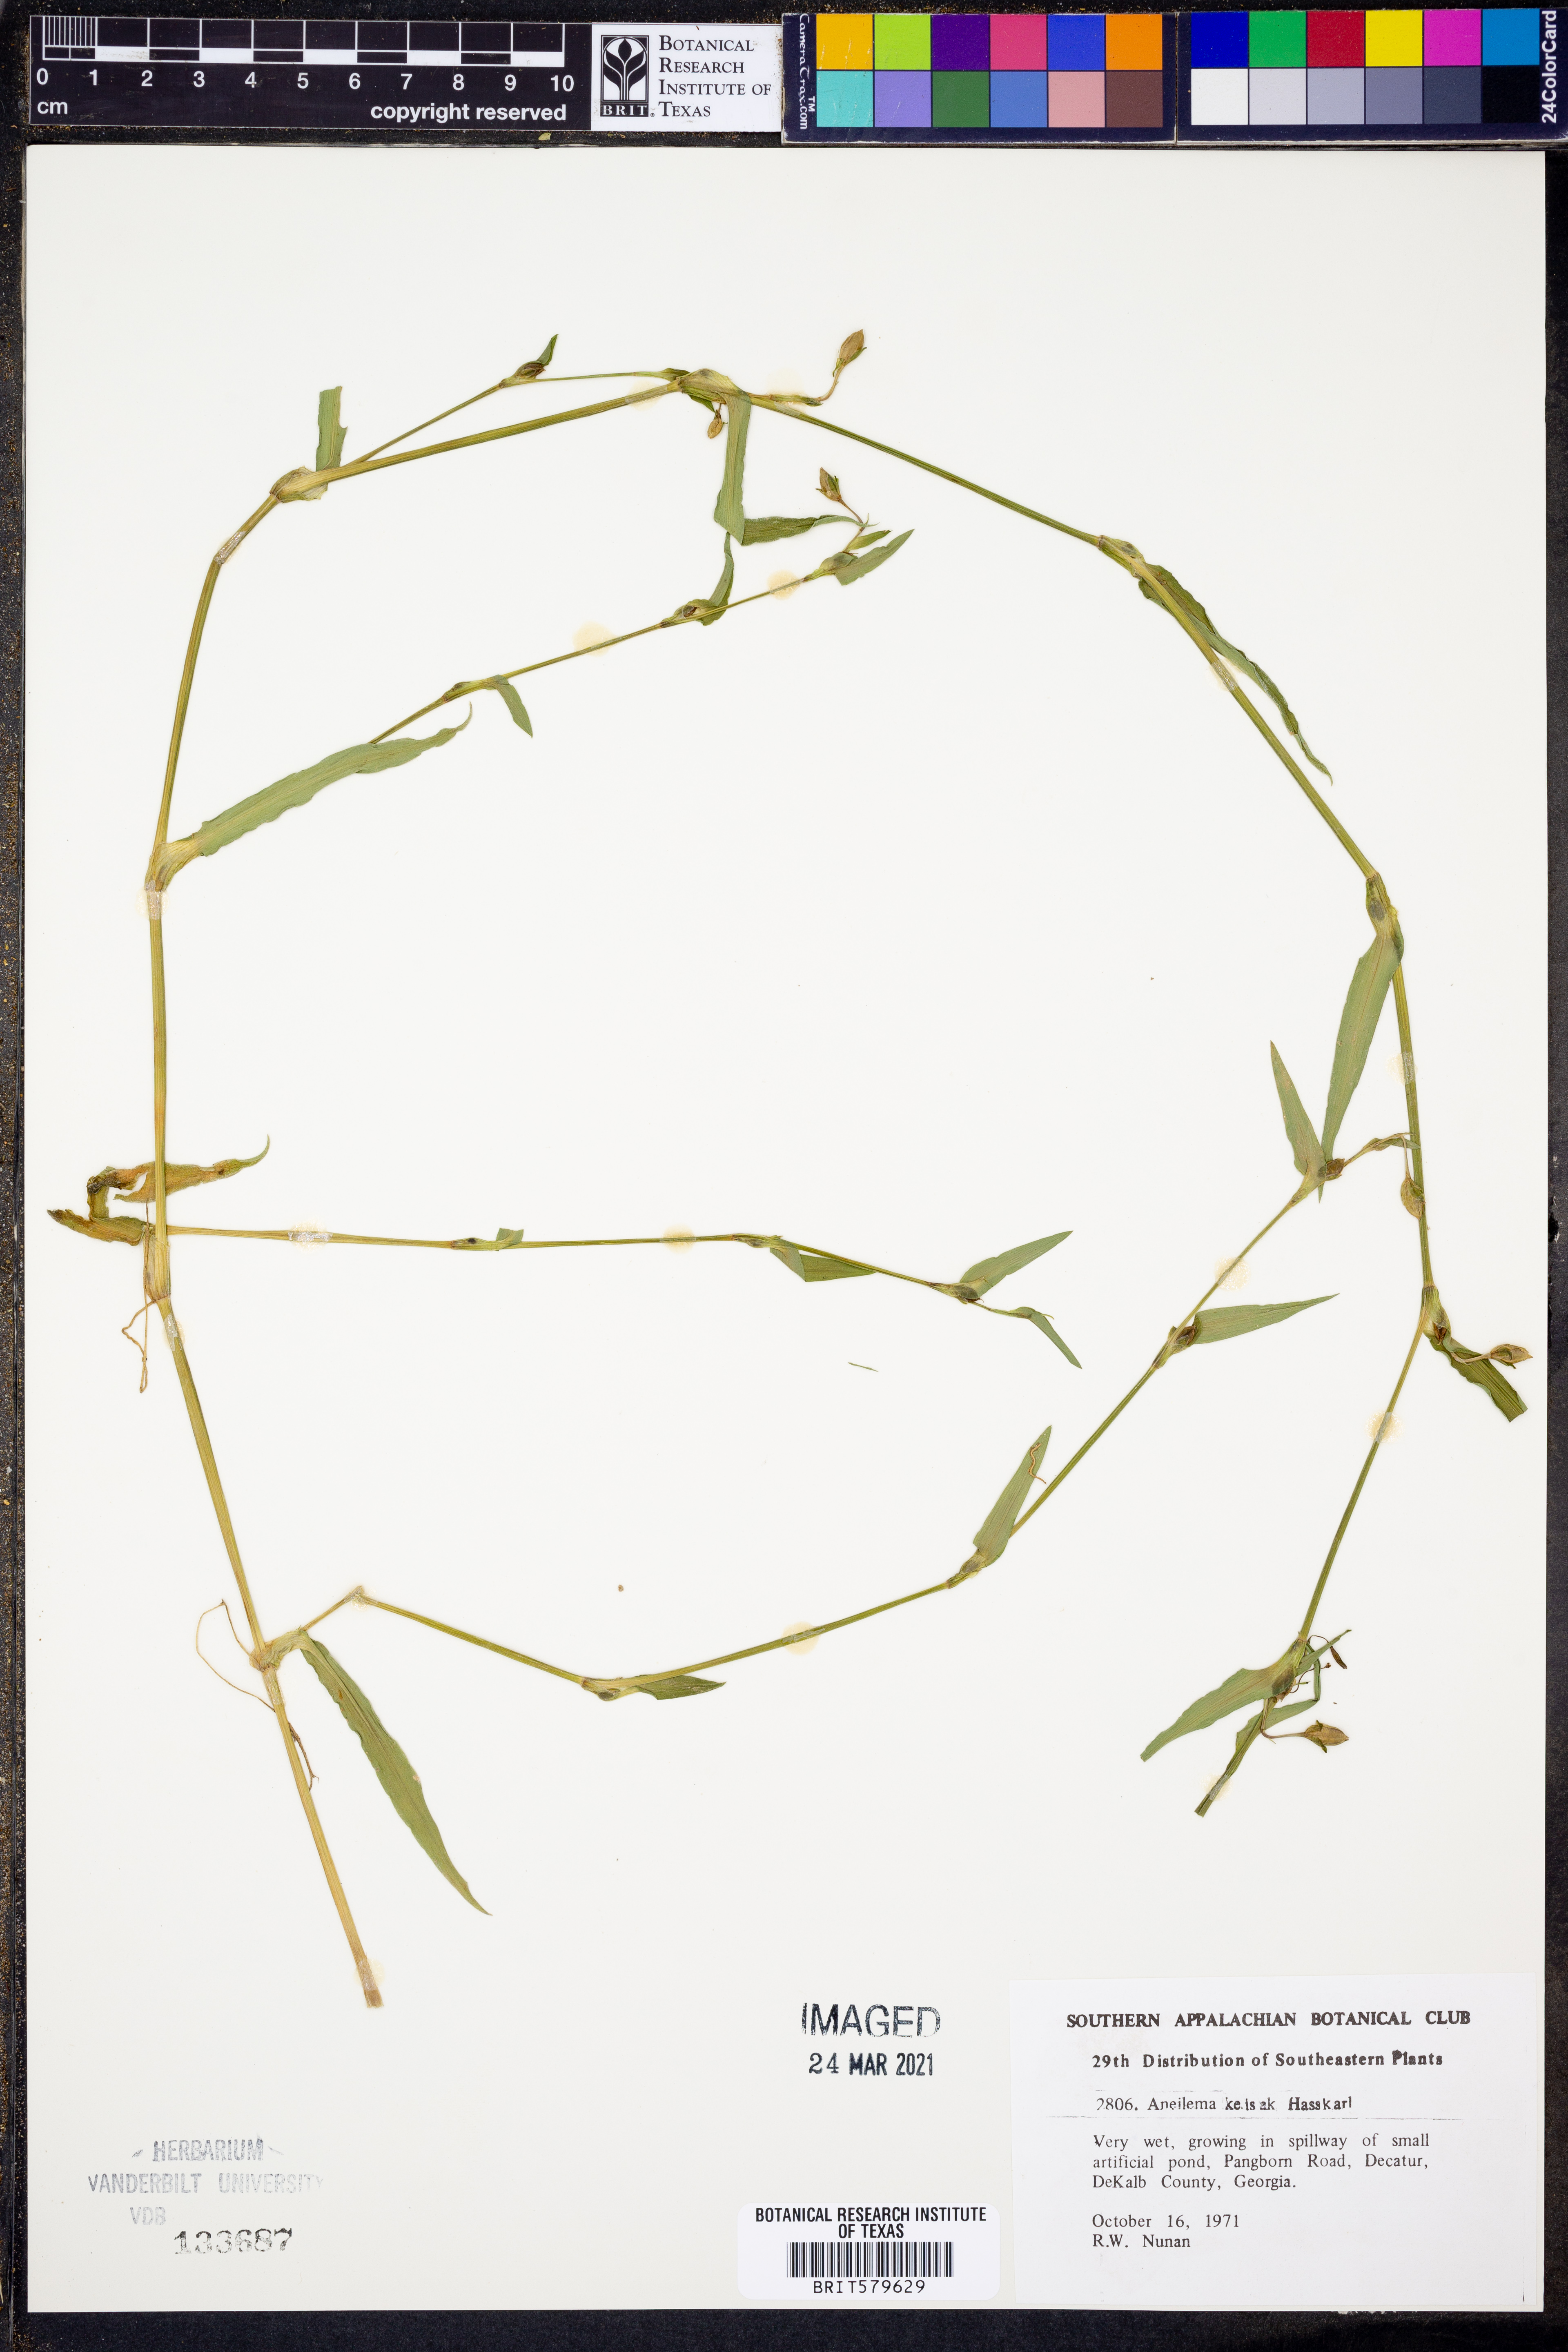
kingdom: Plantae
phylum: Tracheophyta
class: Liliopsida
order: Commelinales
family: Commelinaceae
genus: Murdannia
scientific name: Murdannia keisak
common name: Wartremoving herb
